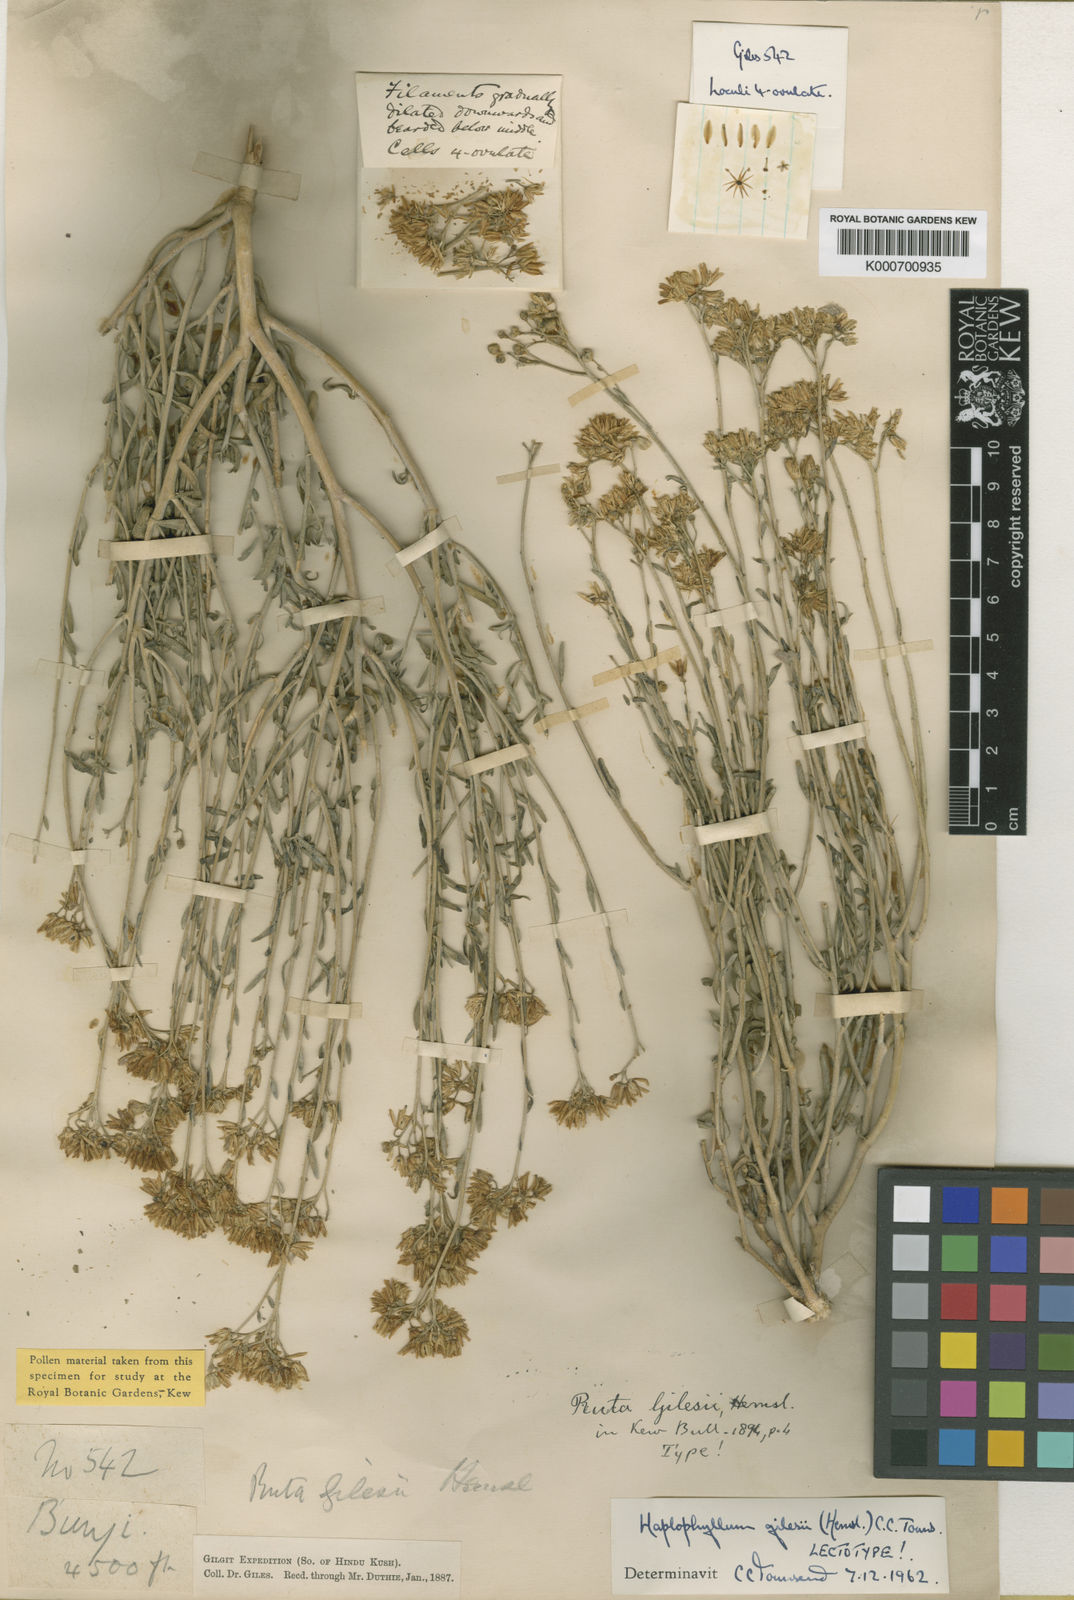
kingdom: Plantae
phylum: Tracheophyta
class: Magnoliopsida
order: Sapindales
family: Rutaceae
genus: Haplophyllum
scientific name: Haplophyllum gilesii
